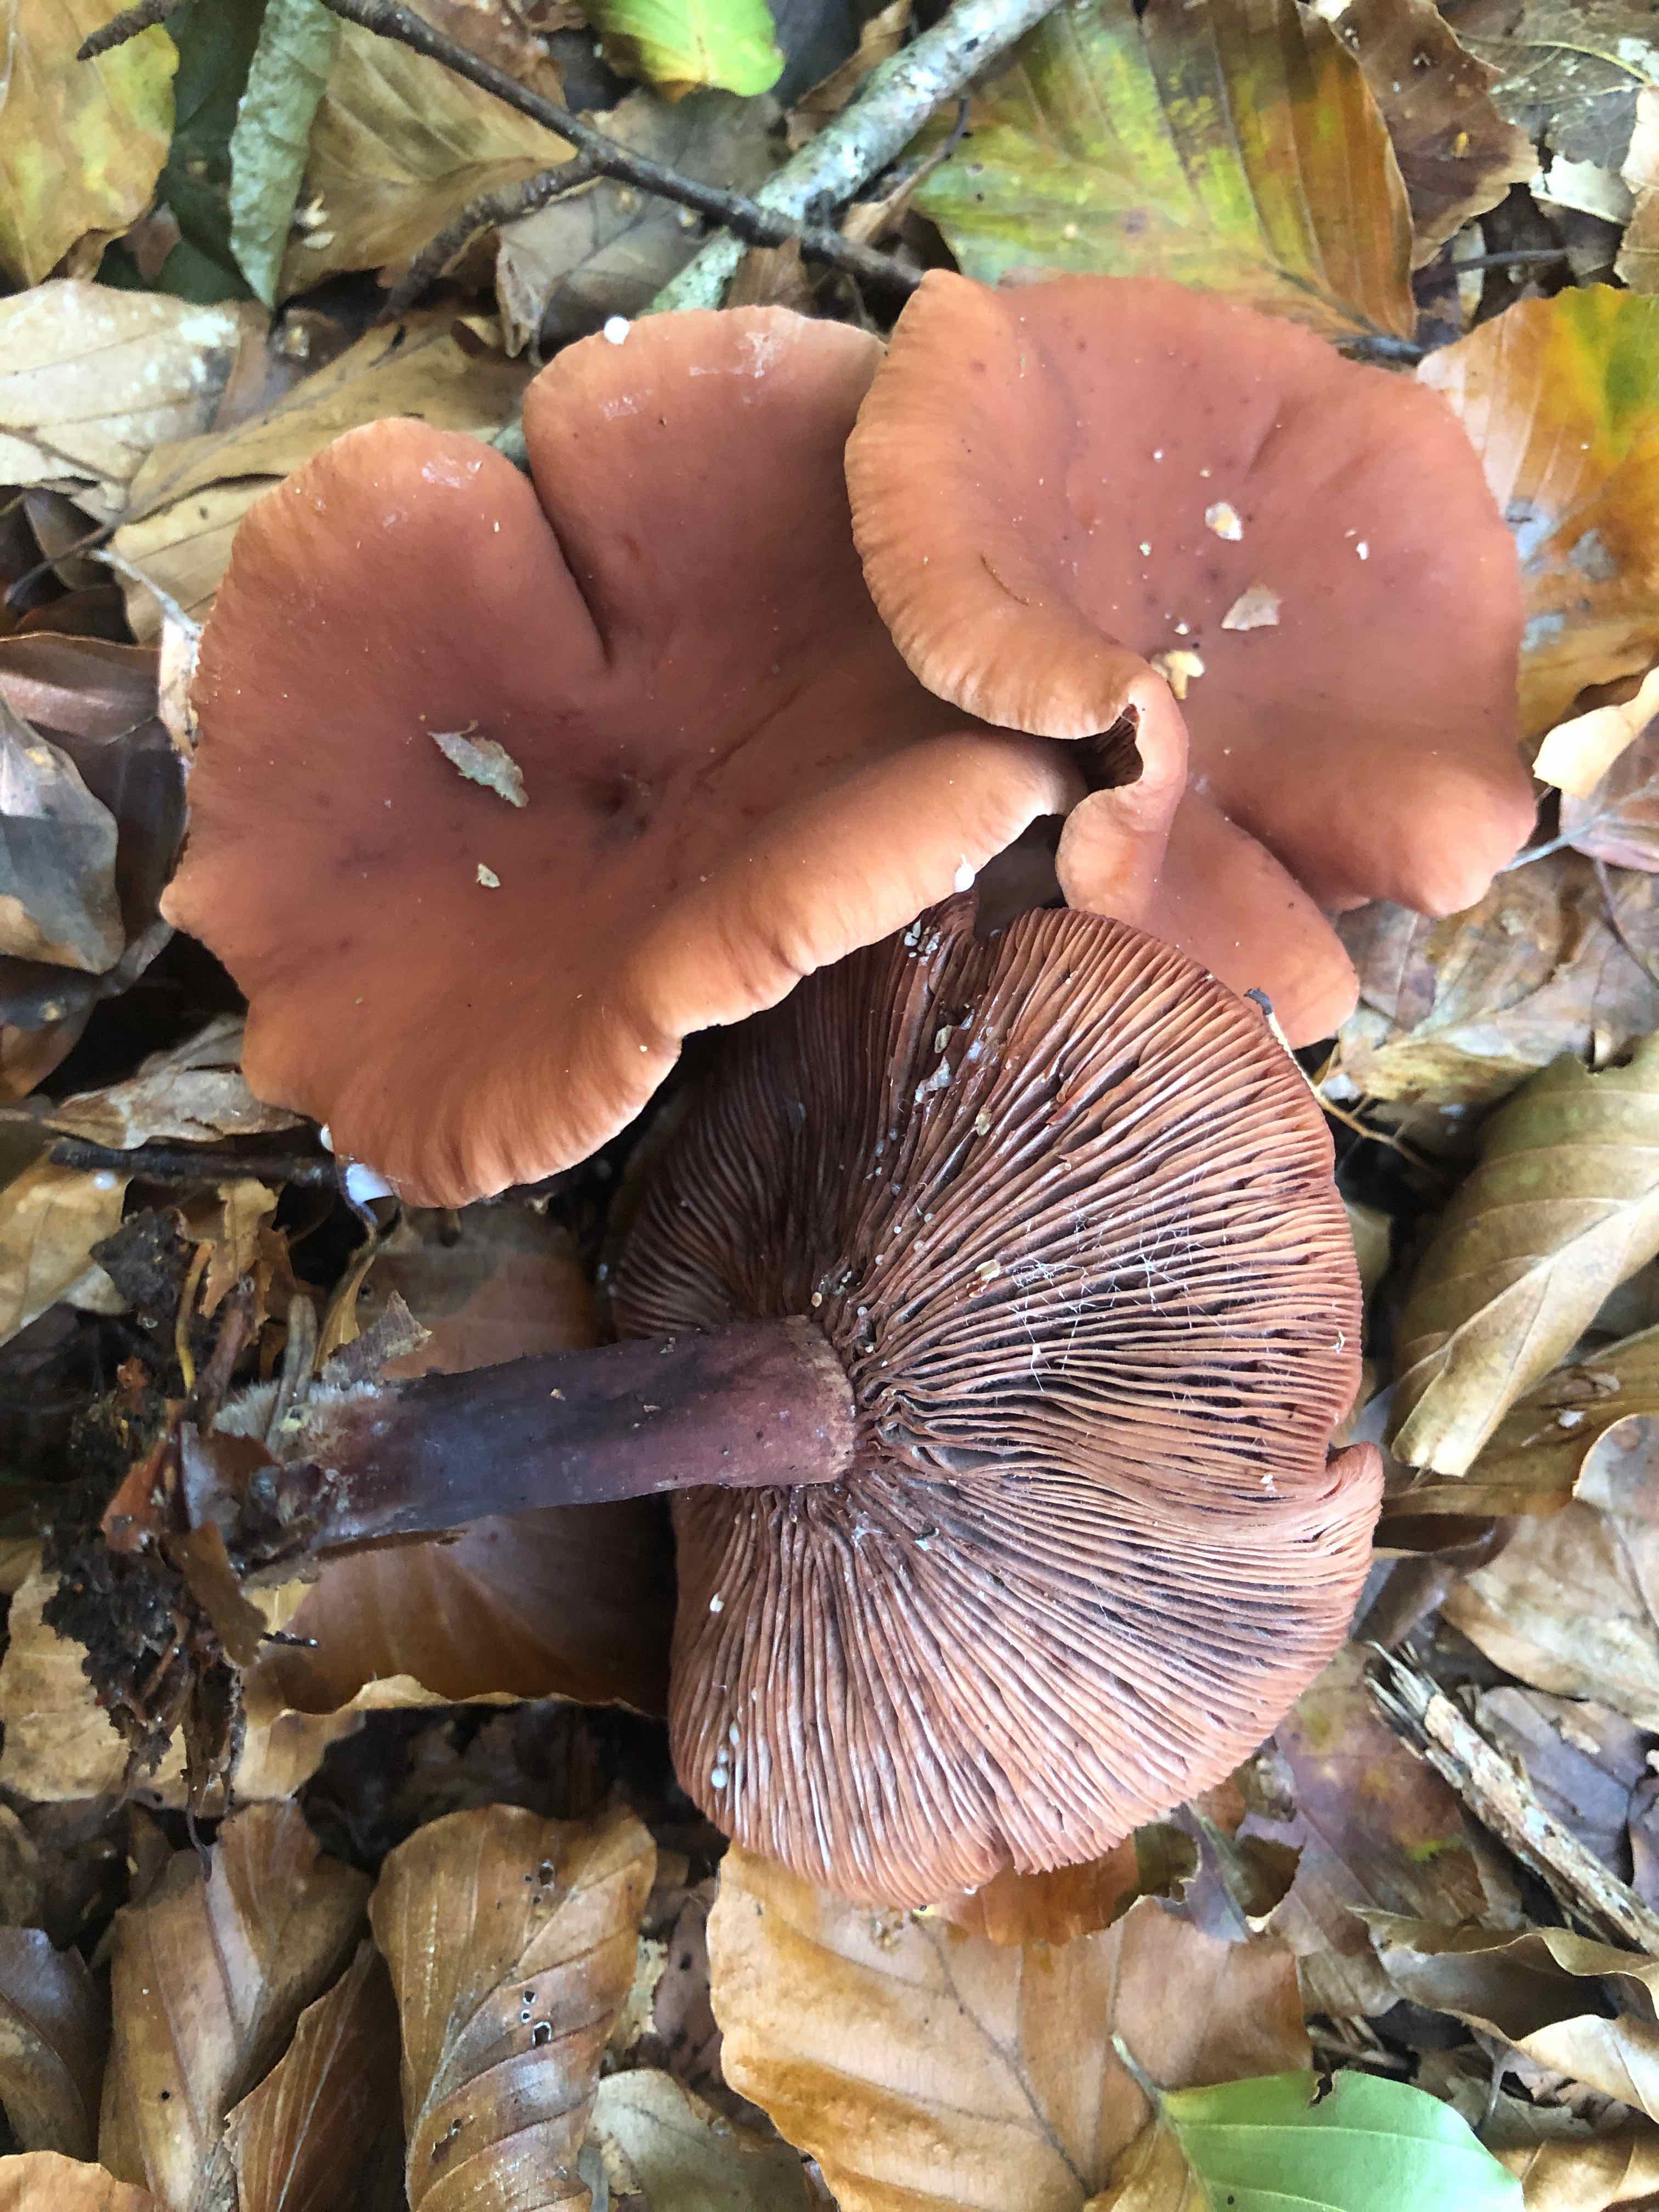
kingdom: Fungi
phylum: Basidiomycota
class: Agaricomycetes
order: Russulales
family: Russulaceae
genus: Lactarius
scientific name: Lactarius camphoratus
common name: kamfer-mælkehat
